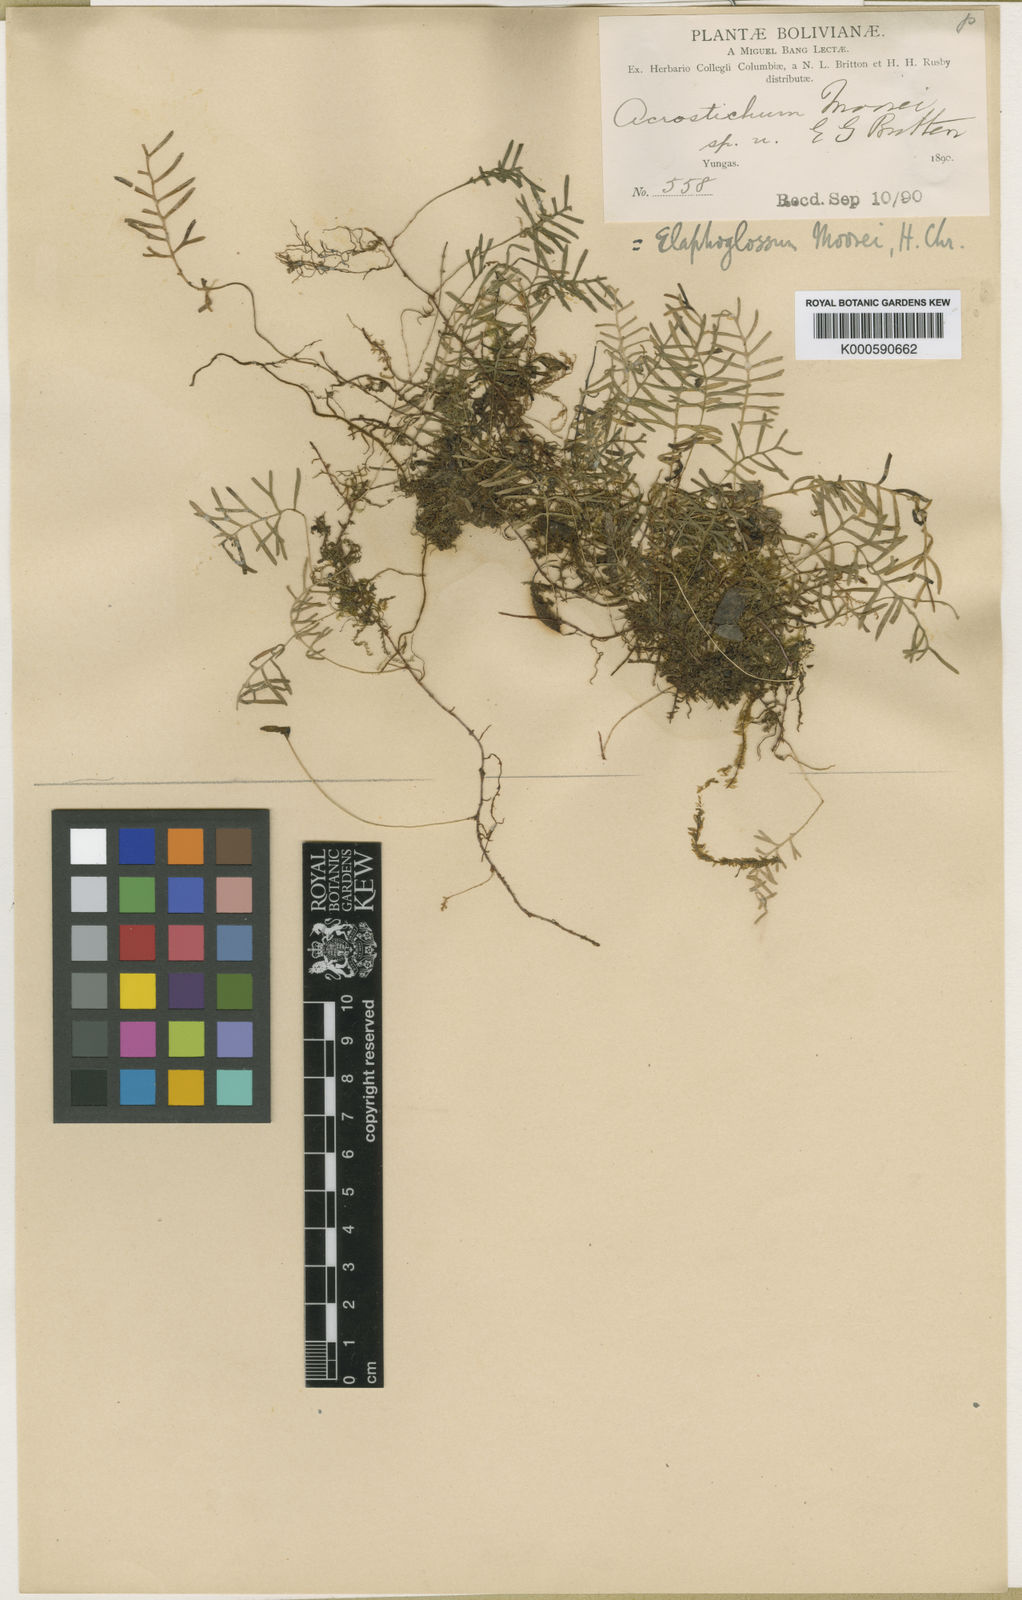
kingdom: Plantae
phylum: Tracheophyta
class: Polypodiopsida
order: Polypodiales
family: Dryopteridaceae
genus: Elaphoglossum
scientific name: Elaphoglossum moorei
